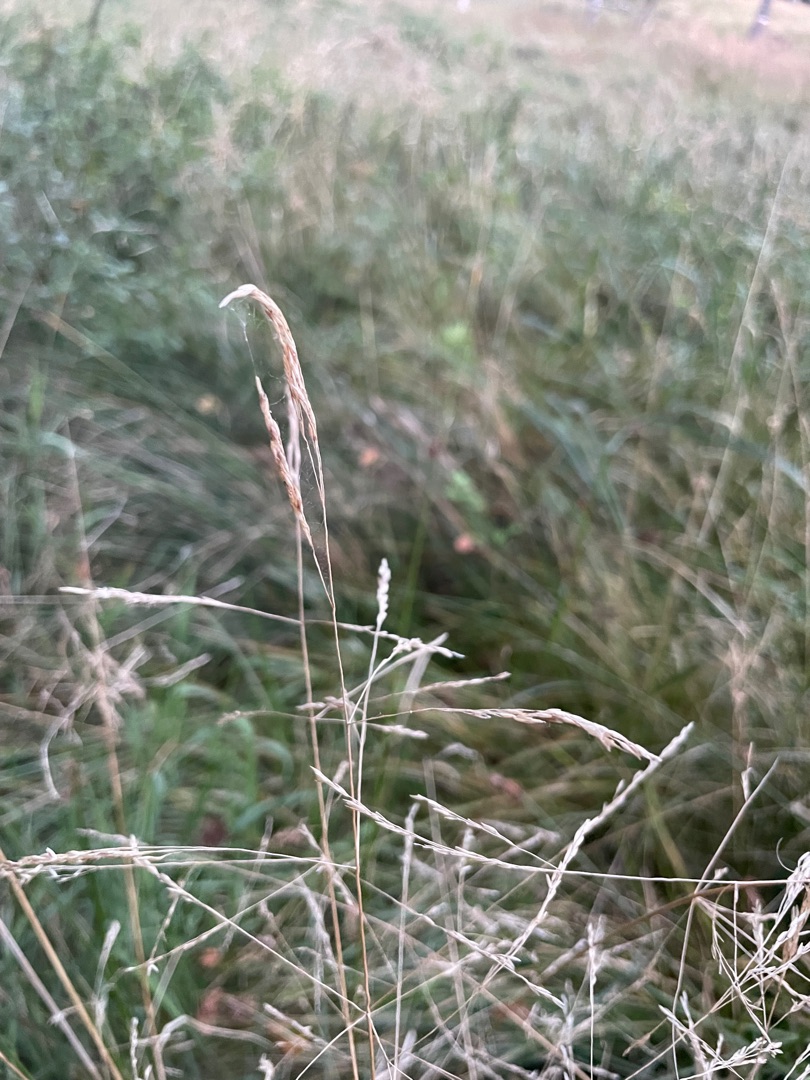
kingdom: Plantae
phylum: Tracheophyta
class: Liliopsida
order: Poales
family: Poaceae
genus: Deschampsia
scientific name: Deschampsia cespitosa
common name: Mose-bunke
